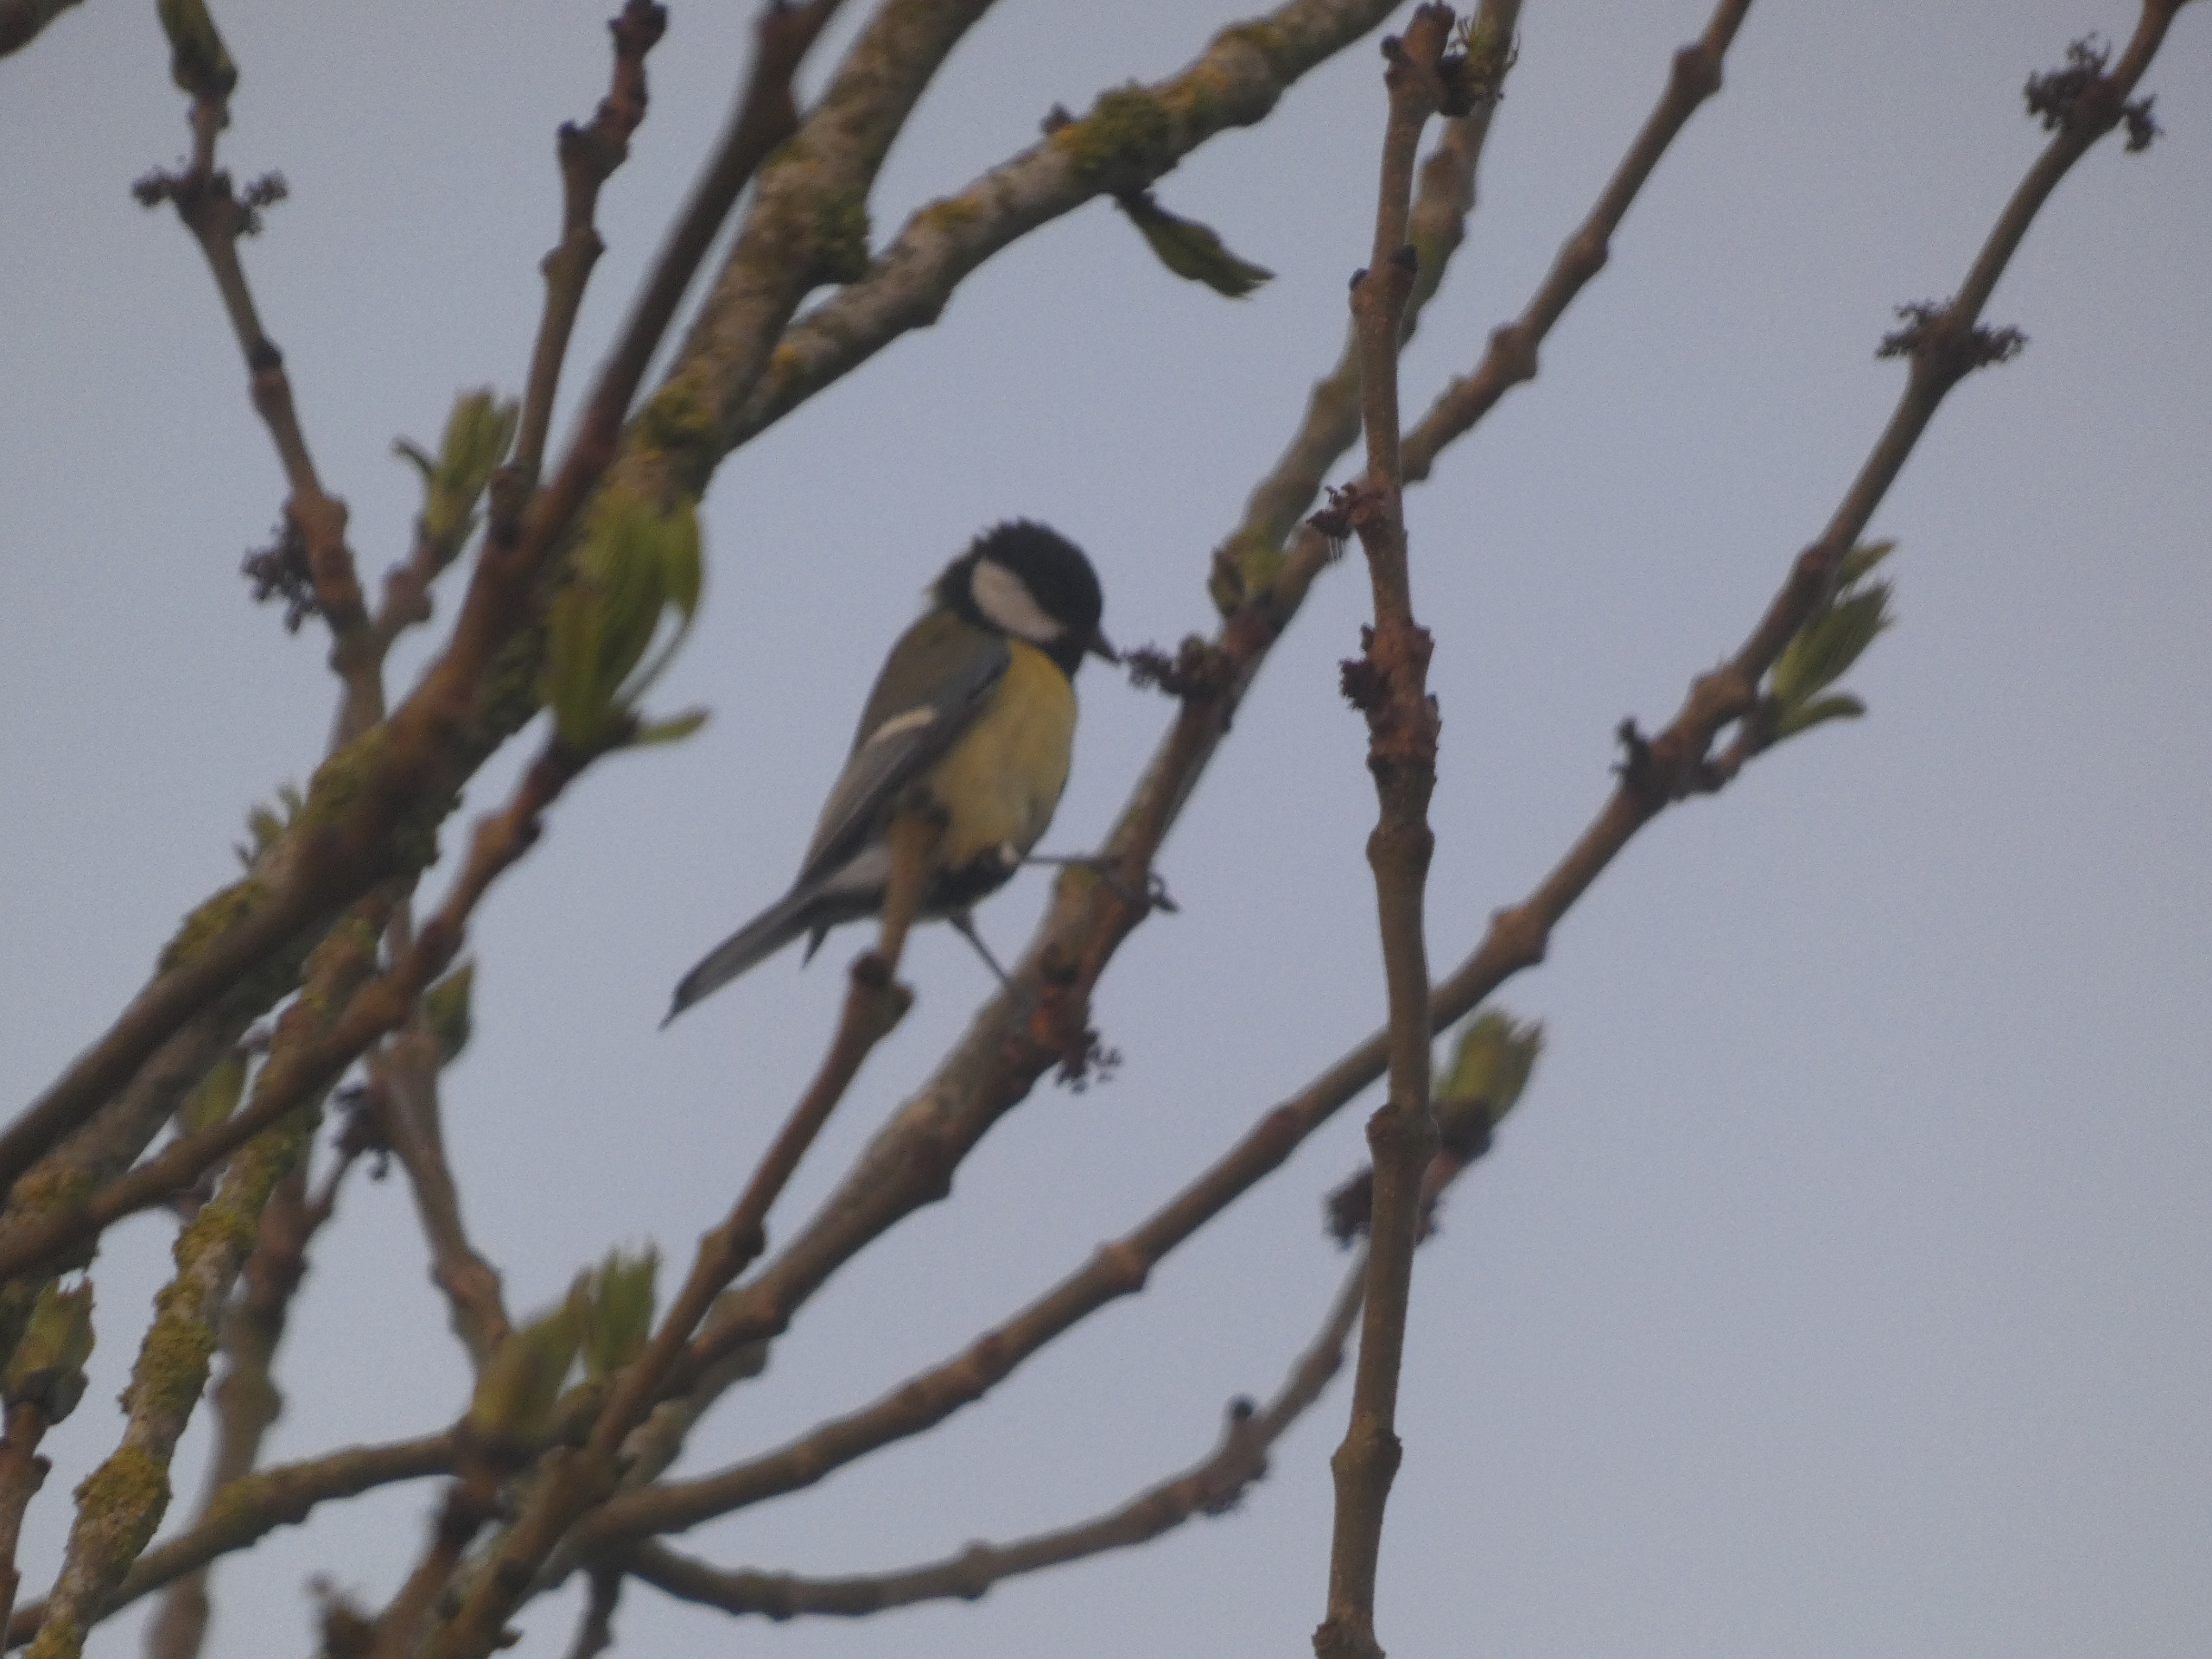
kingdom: Animalia
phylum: Chordata
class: Aves
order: Passeriformes
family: Paridae
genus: Parus
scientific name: Parus major
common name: Musvit
